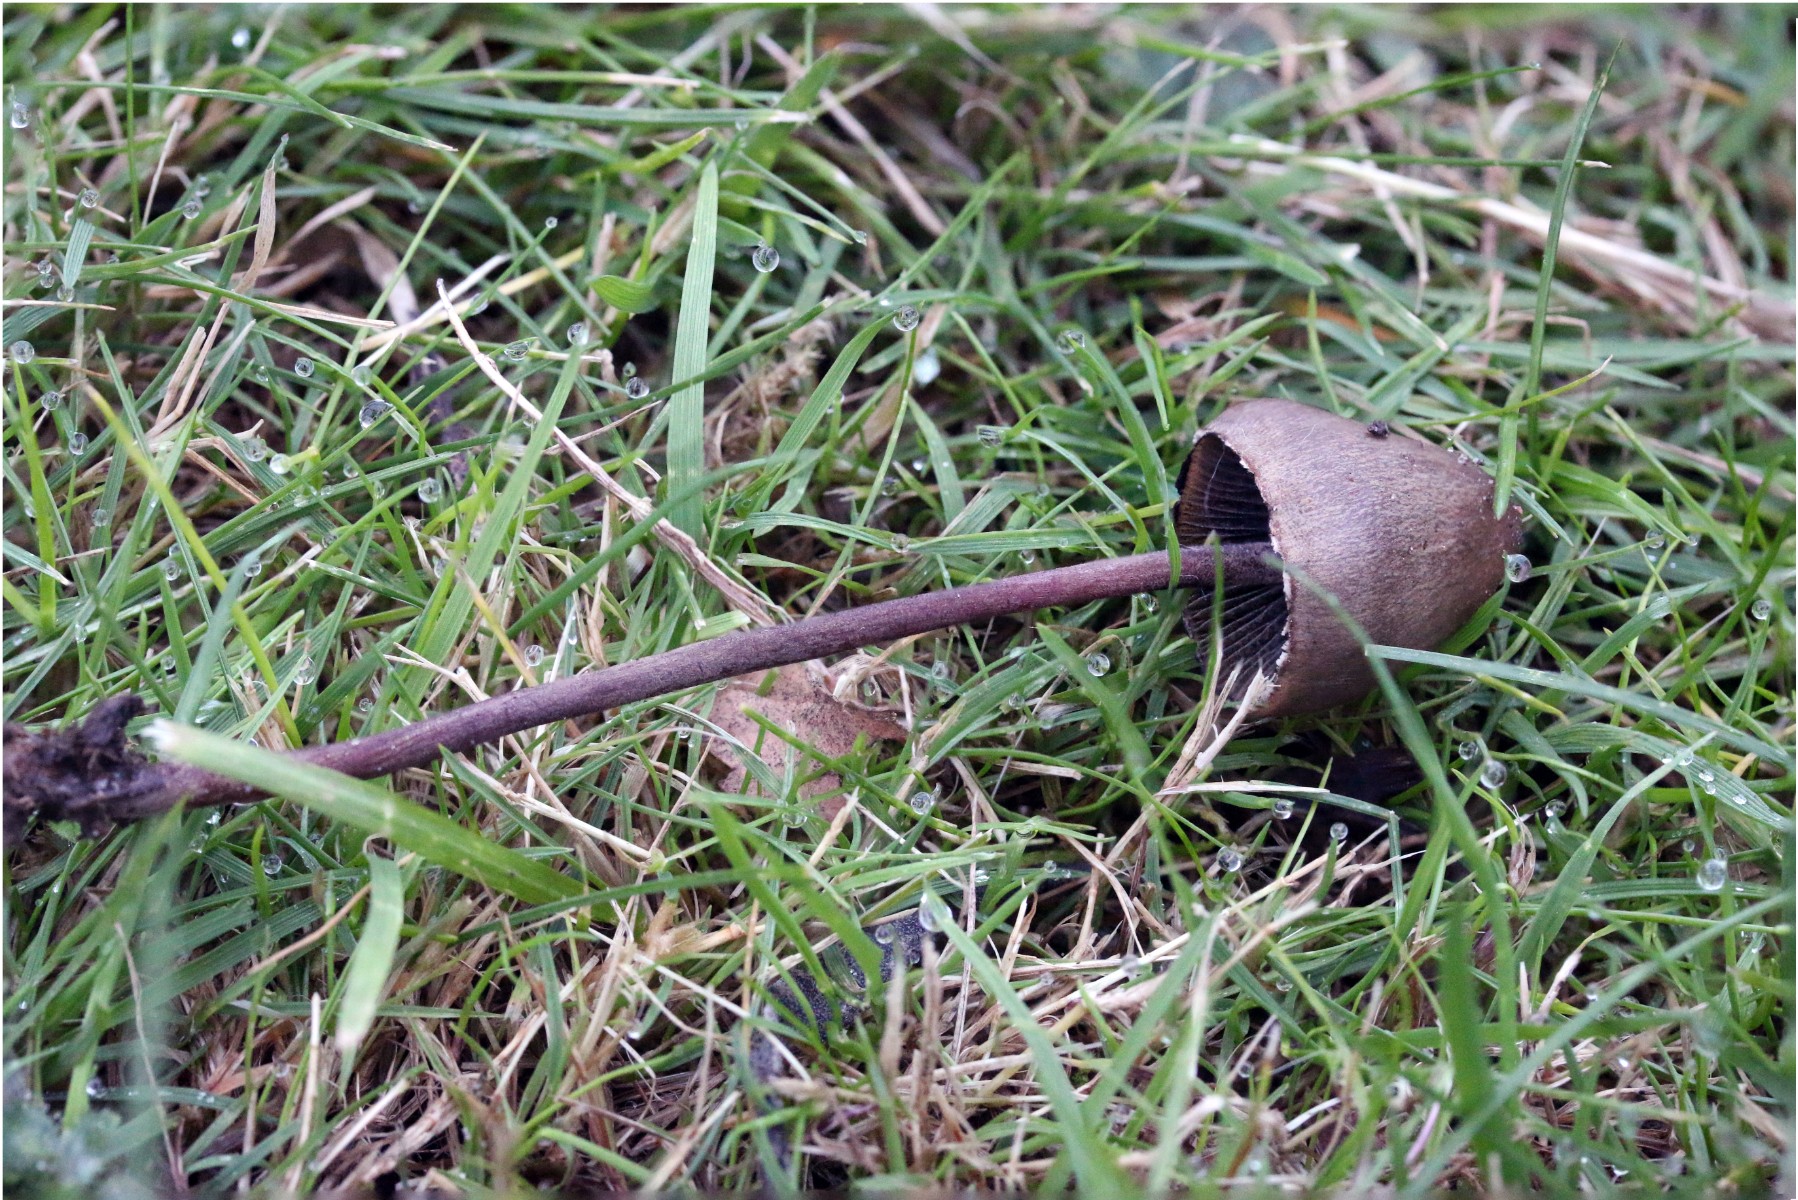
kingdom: Fungi
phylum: Basidiomycota
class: Agaricomycetes
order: Agaricales
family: Bolbitiaceae
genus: Panaeolus
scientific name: Panaeolus papilionaceus
